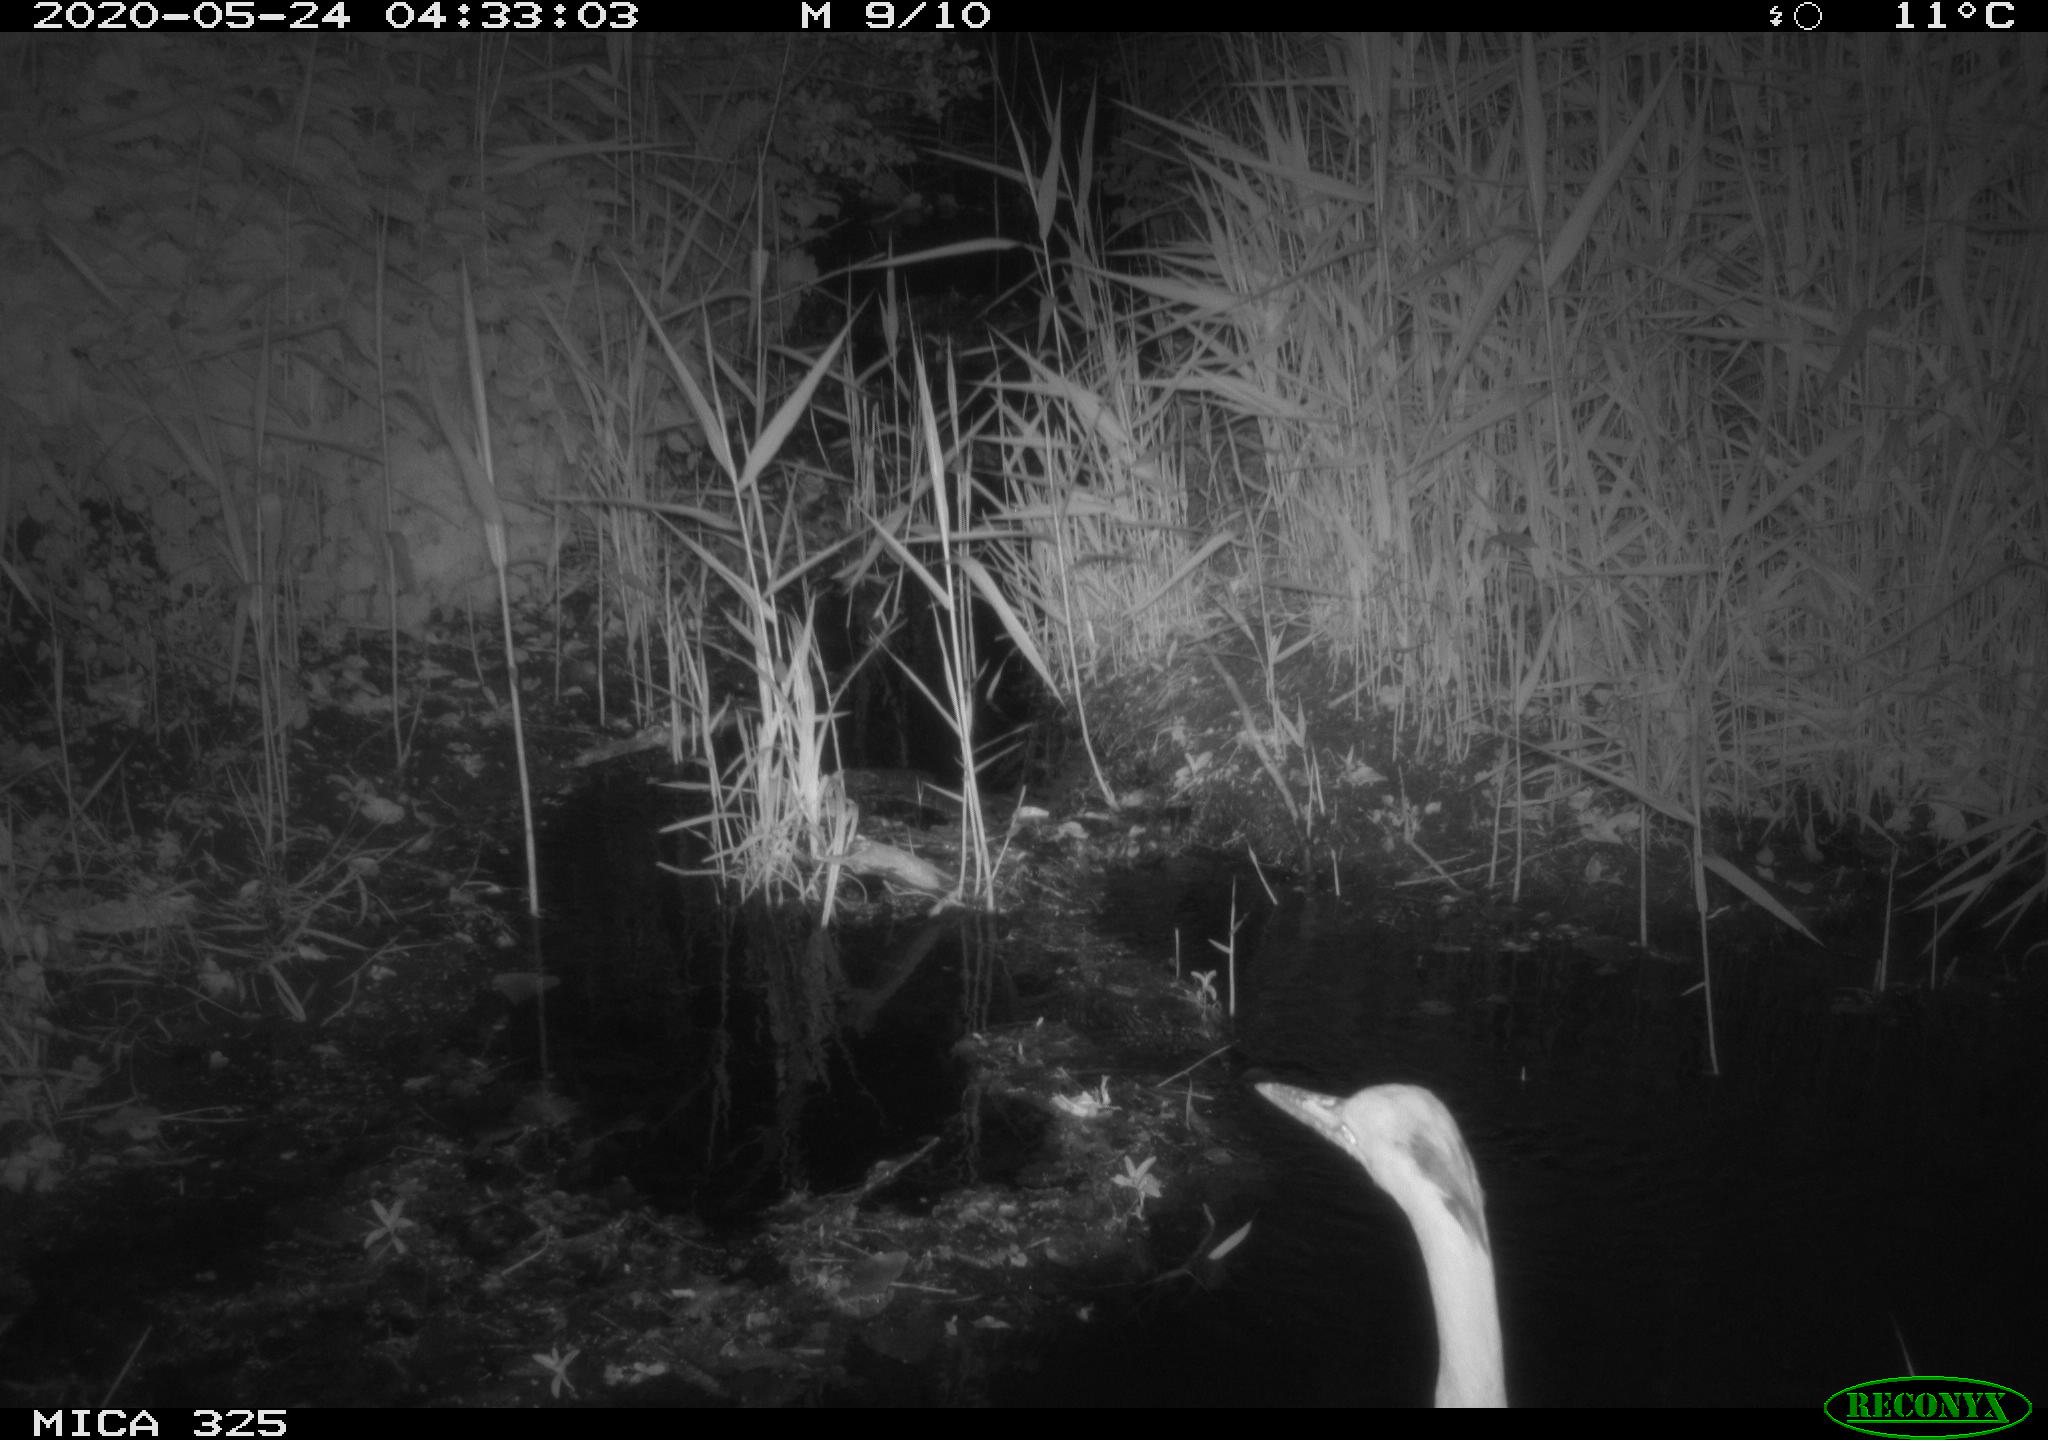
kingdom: Animalia
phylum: Chordata
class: Aves
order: Pelecaniformes
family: Ardeidae
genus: Ardea
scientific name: Ardea cinerea
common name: Grey heron
